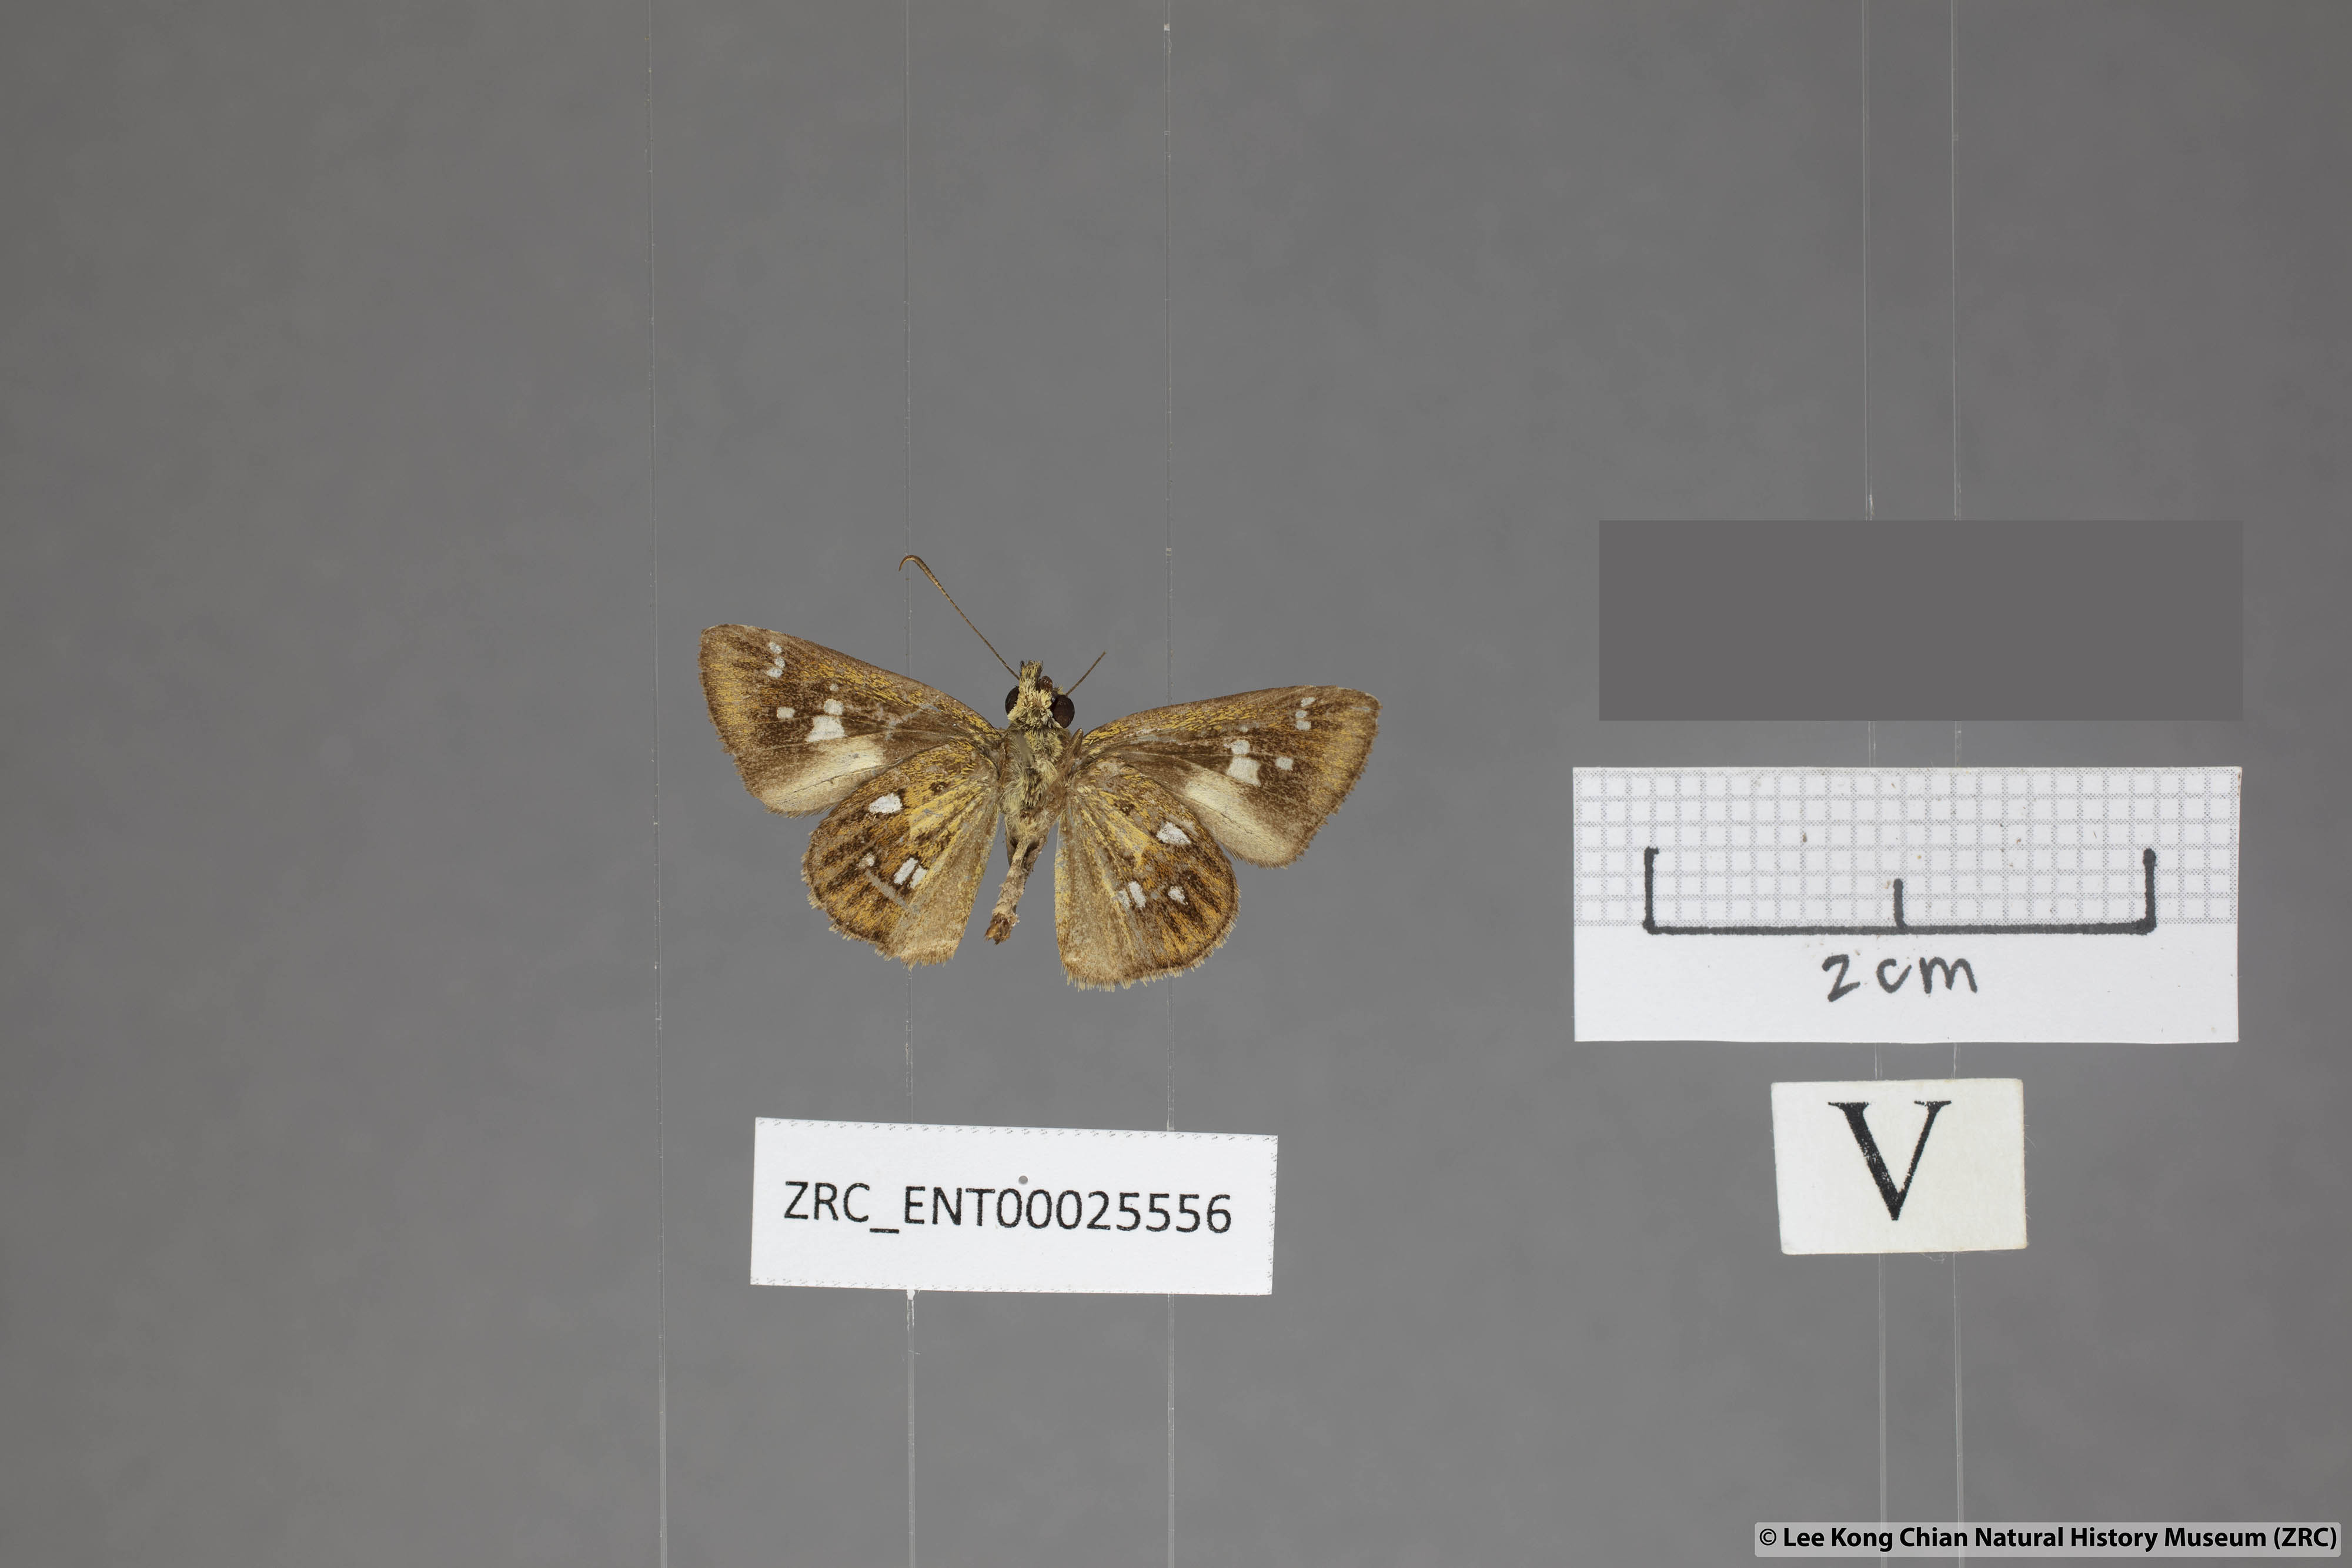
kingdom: Animalia
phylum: Arthropoda
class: Insecta
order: Lepidoptera
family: Hesperiidae
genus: Scobura
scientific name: Scobura woolletti
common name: Brown forest bob
